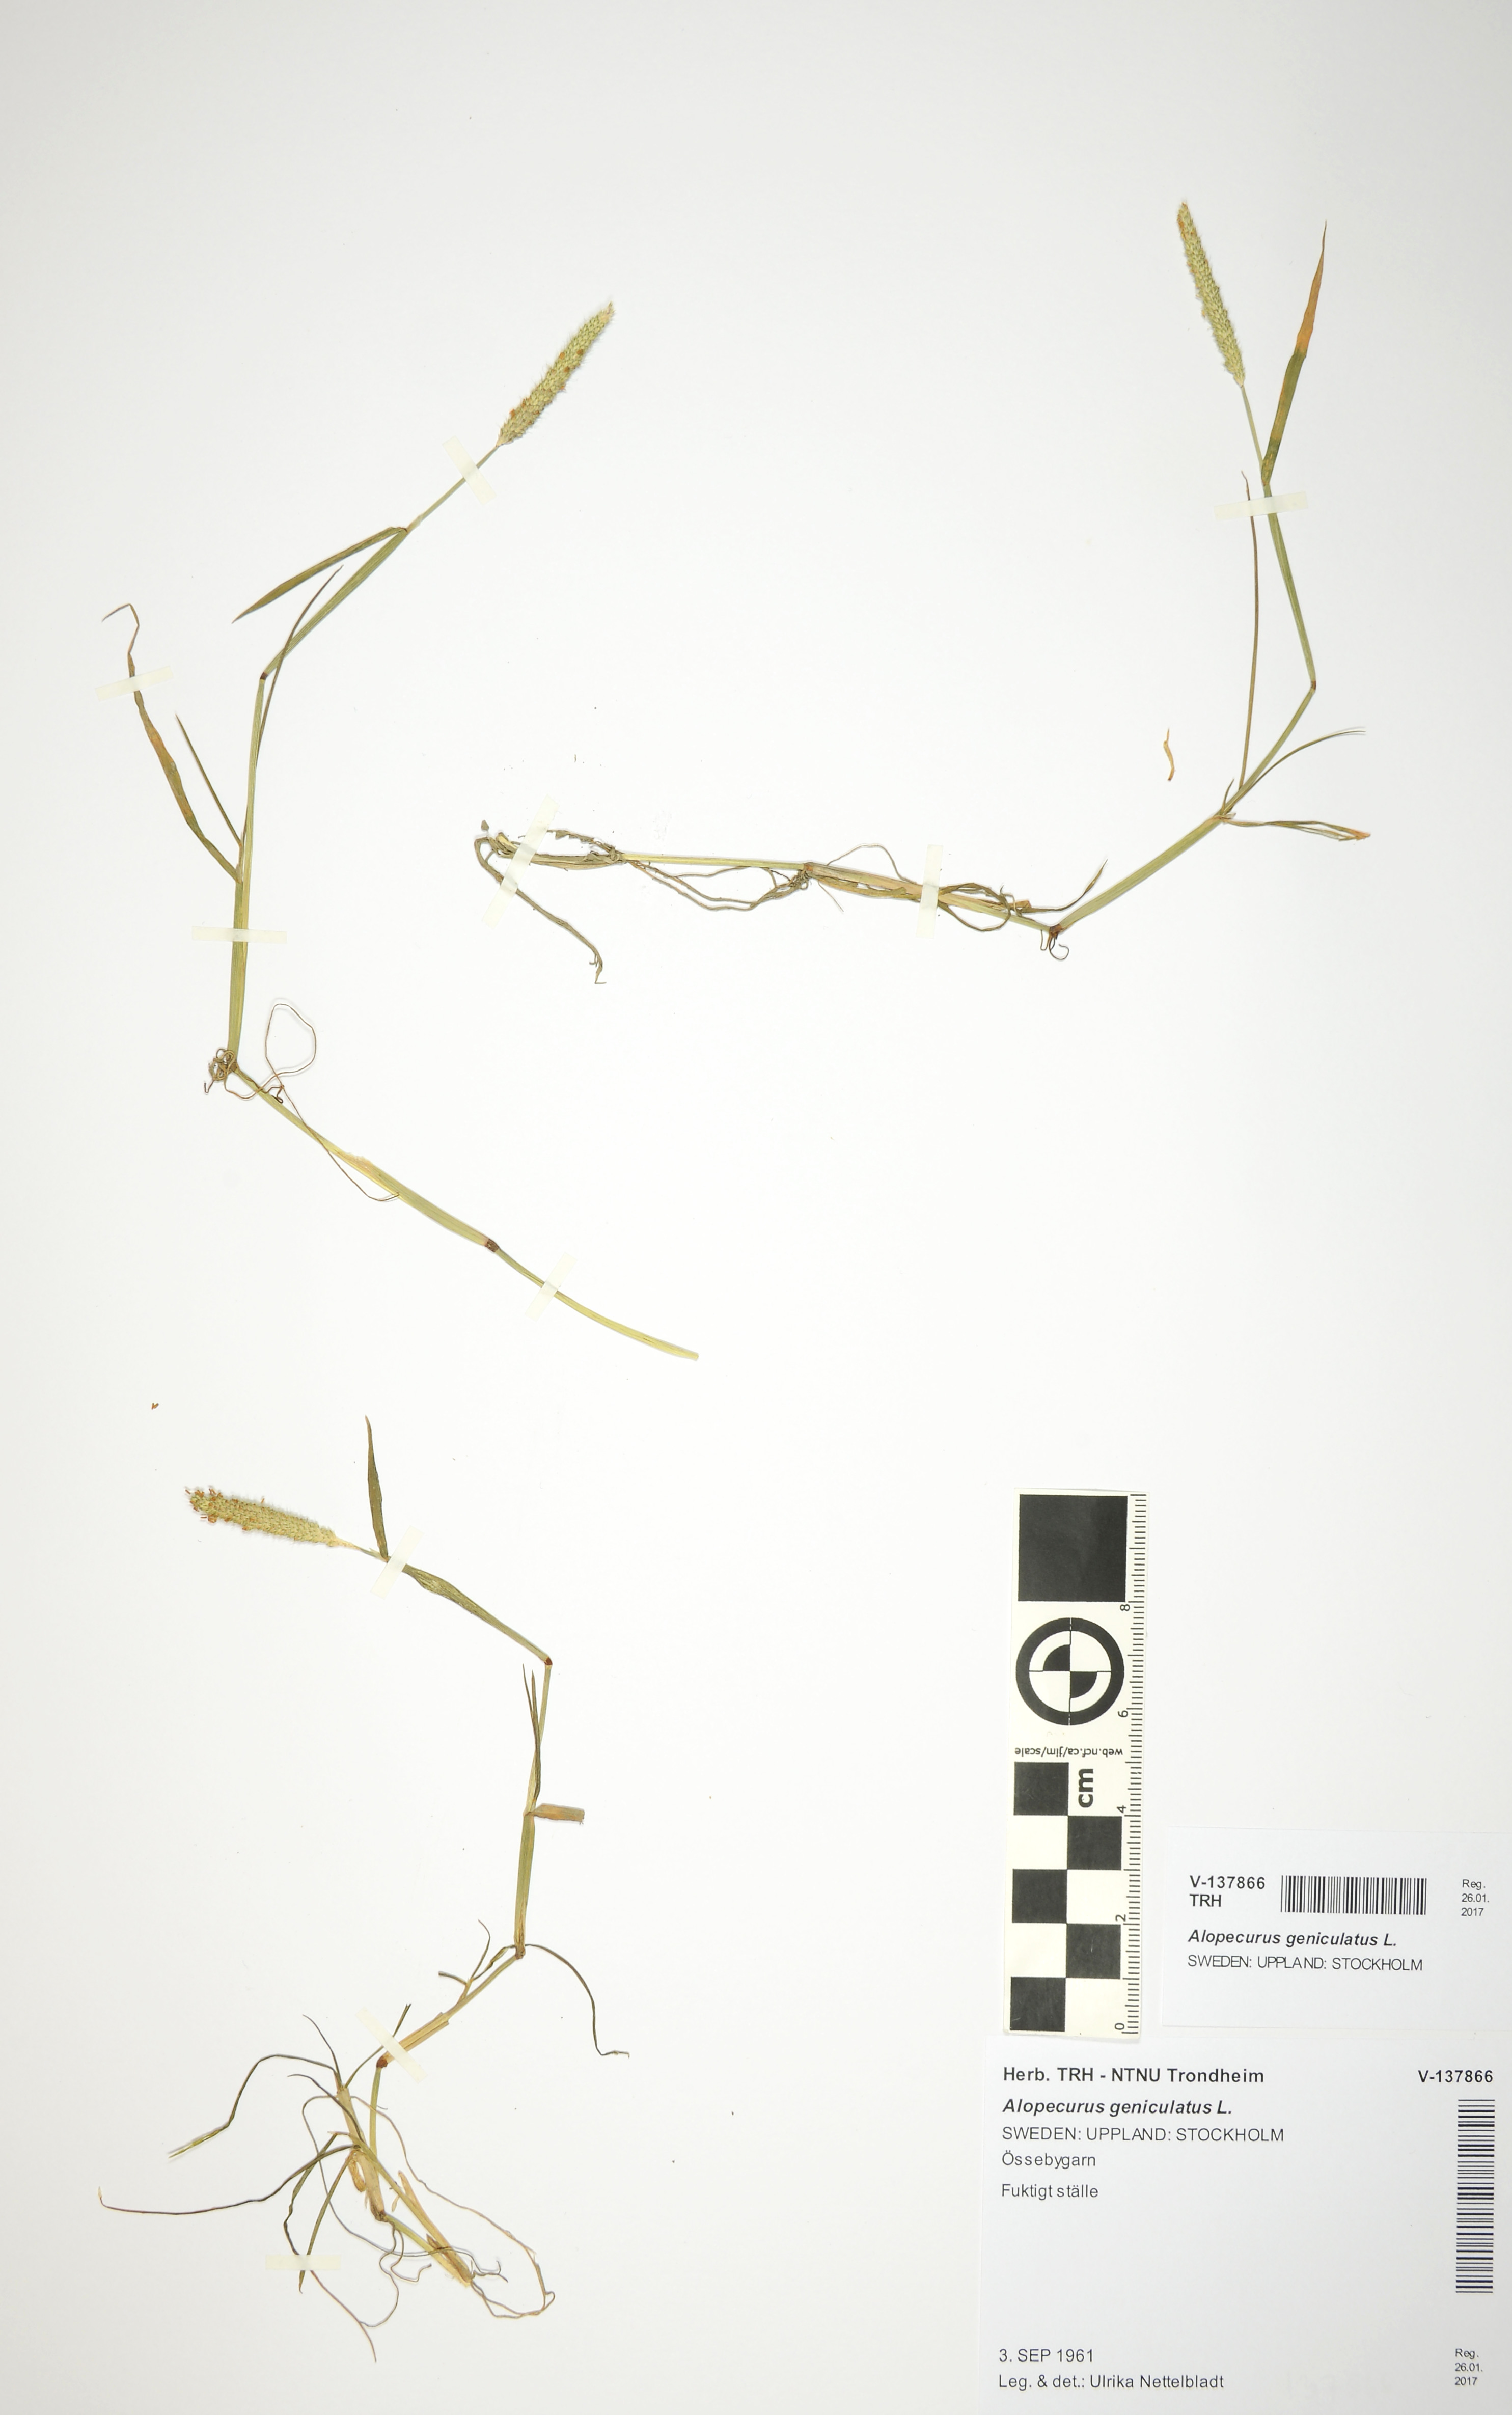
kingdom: Plantae
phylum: Tracheophyta
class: Liliopsida
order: Poales
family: Poaceae
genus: Alopecurus
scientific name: Alopecurus geniculatus
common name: Water foxtail
